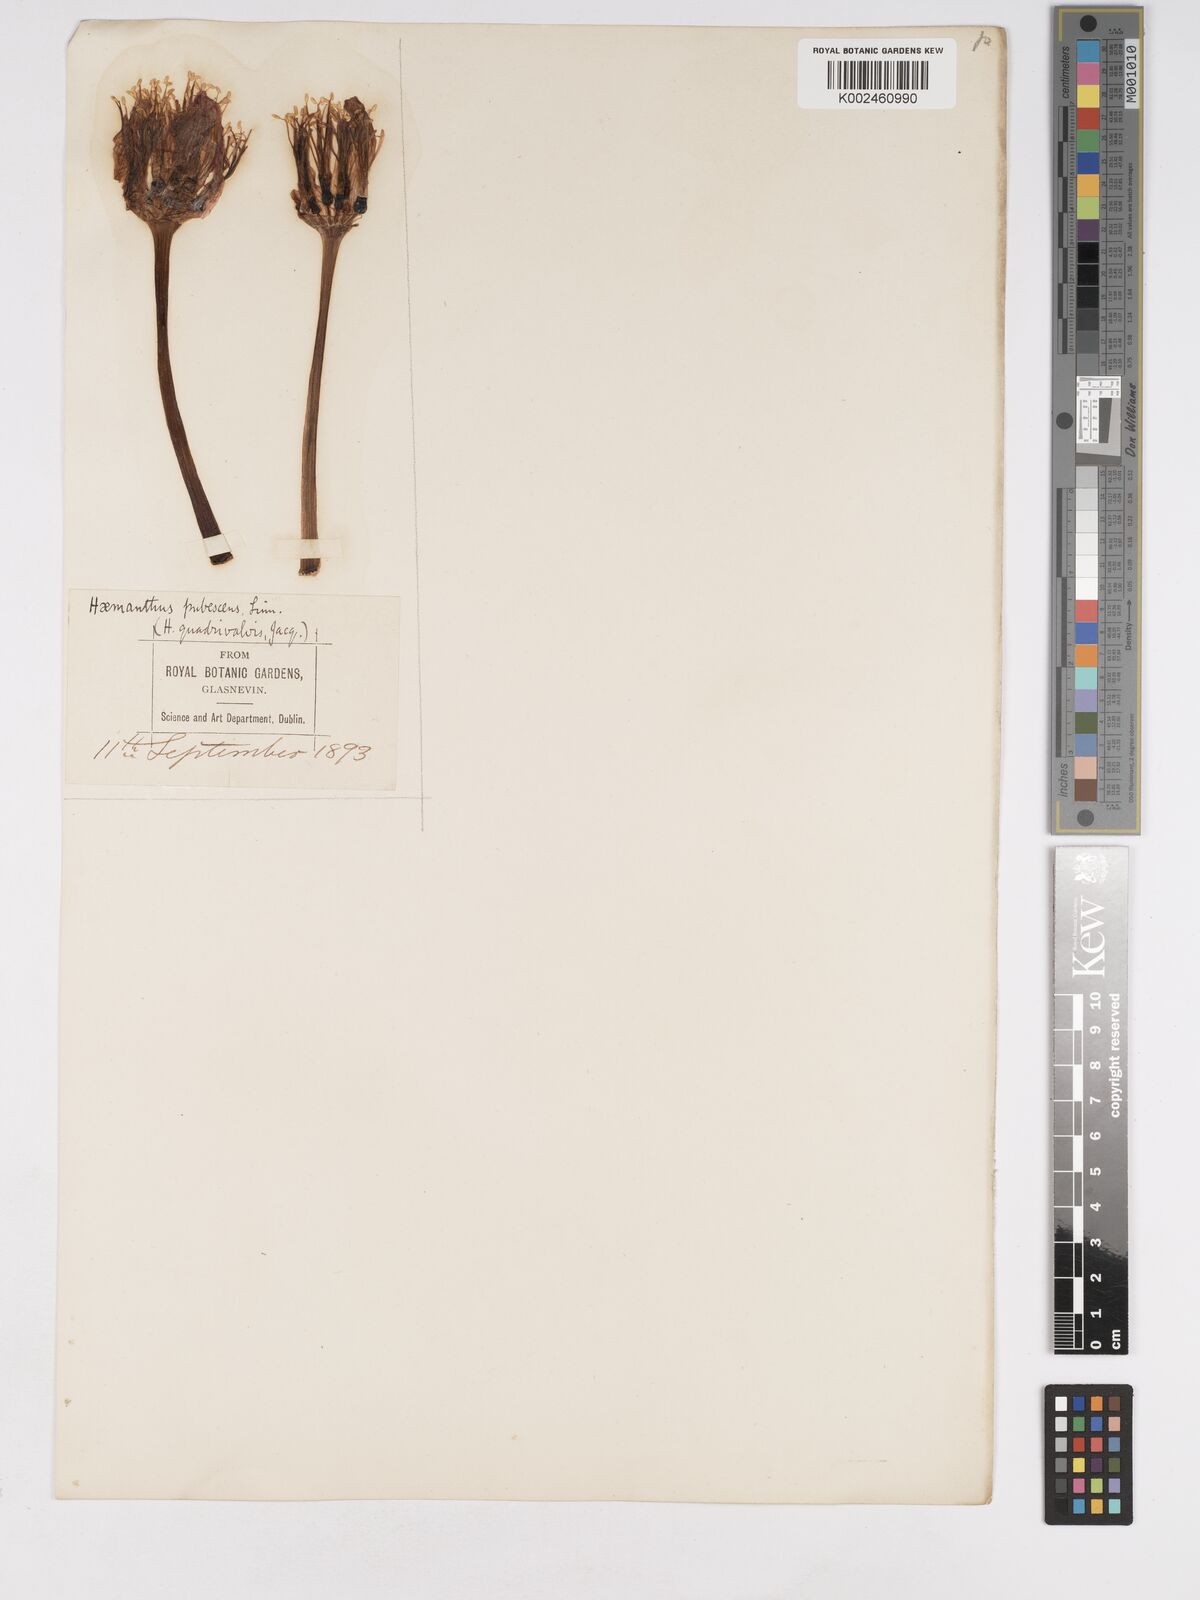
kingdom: Plantae
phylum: Tracheophyta
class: Liliopsida
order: Asparagales
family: Amaryllidaceae
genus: Haemanthus
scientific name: Haemanthus pubescens
